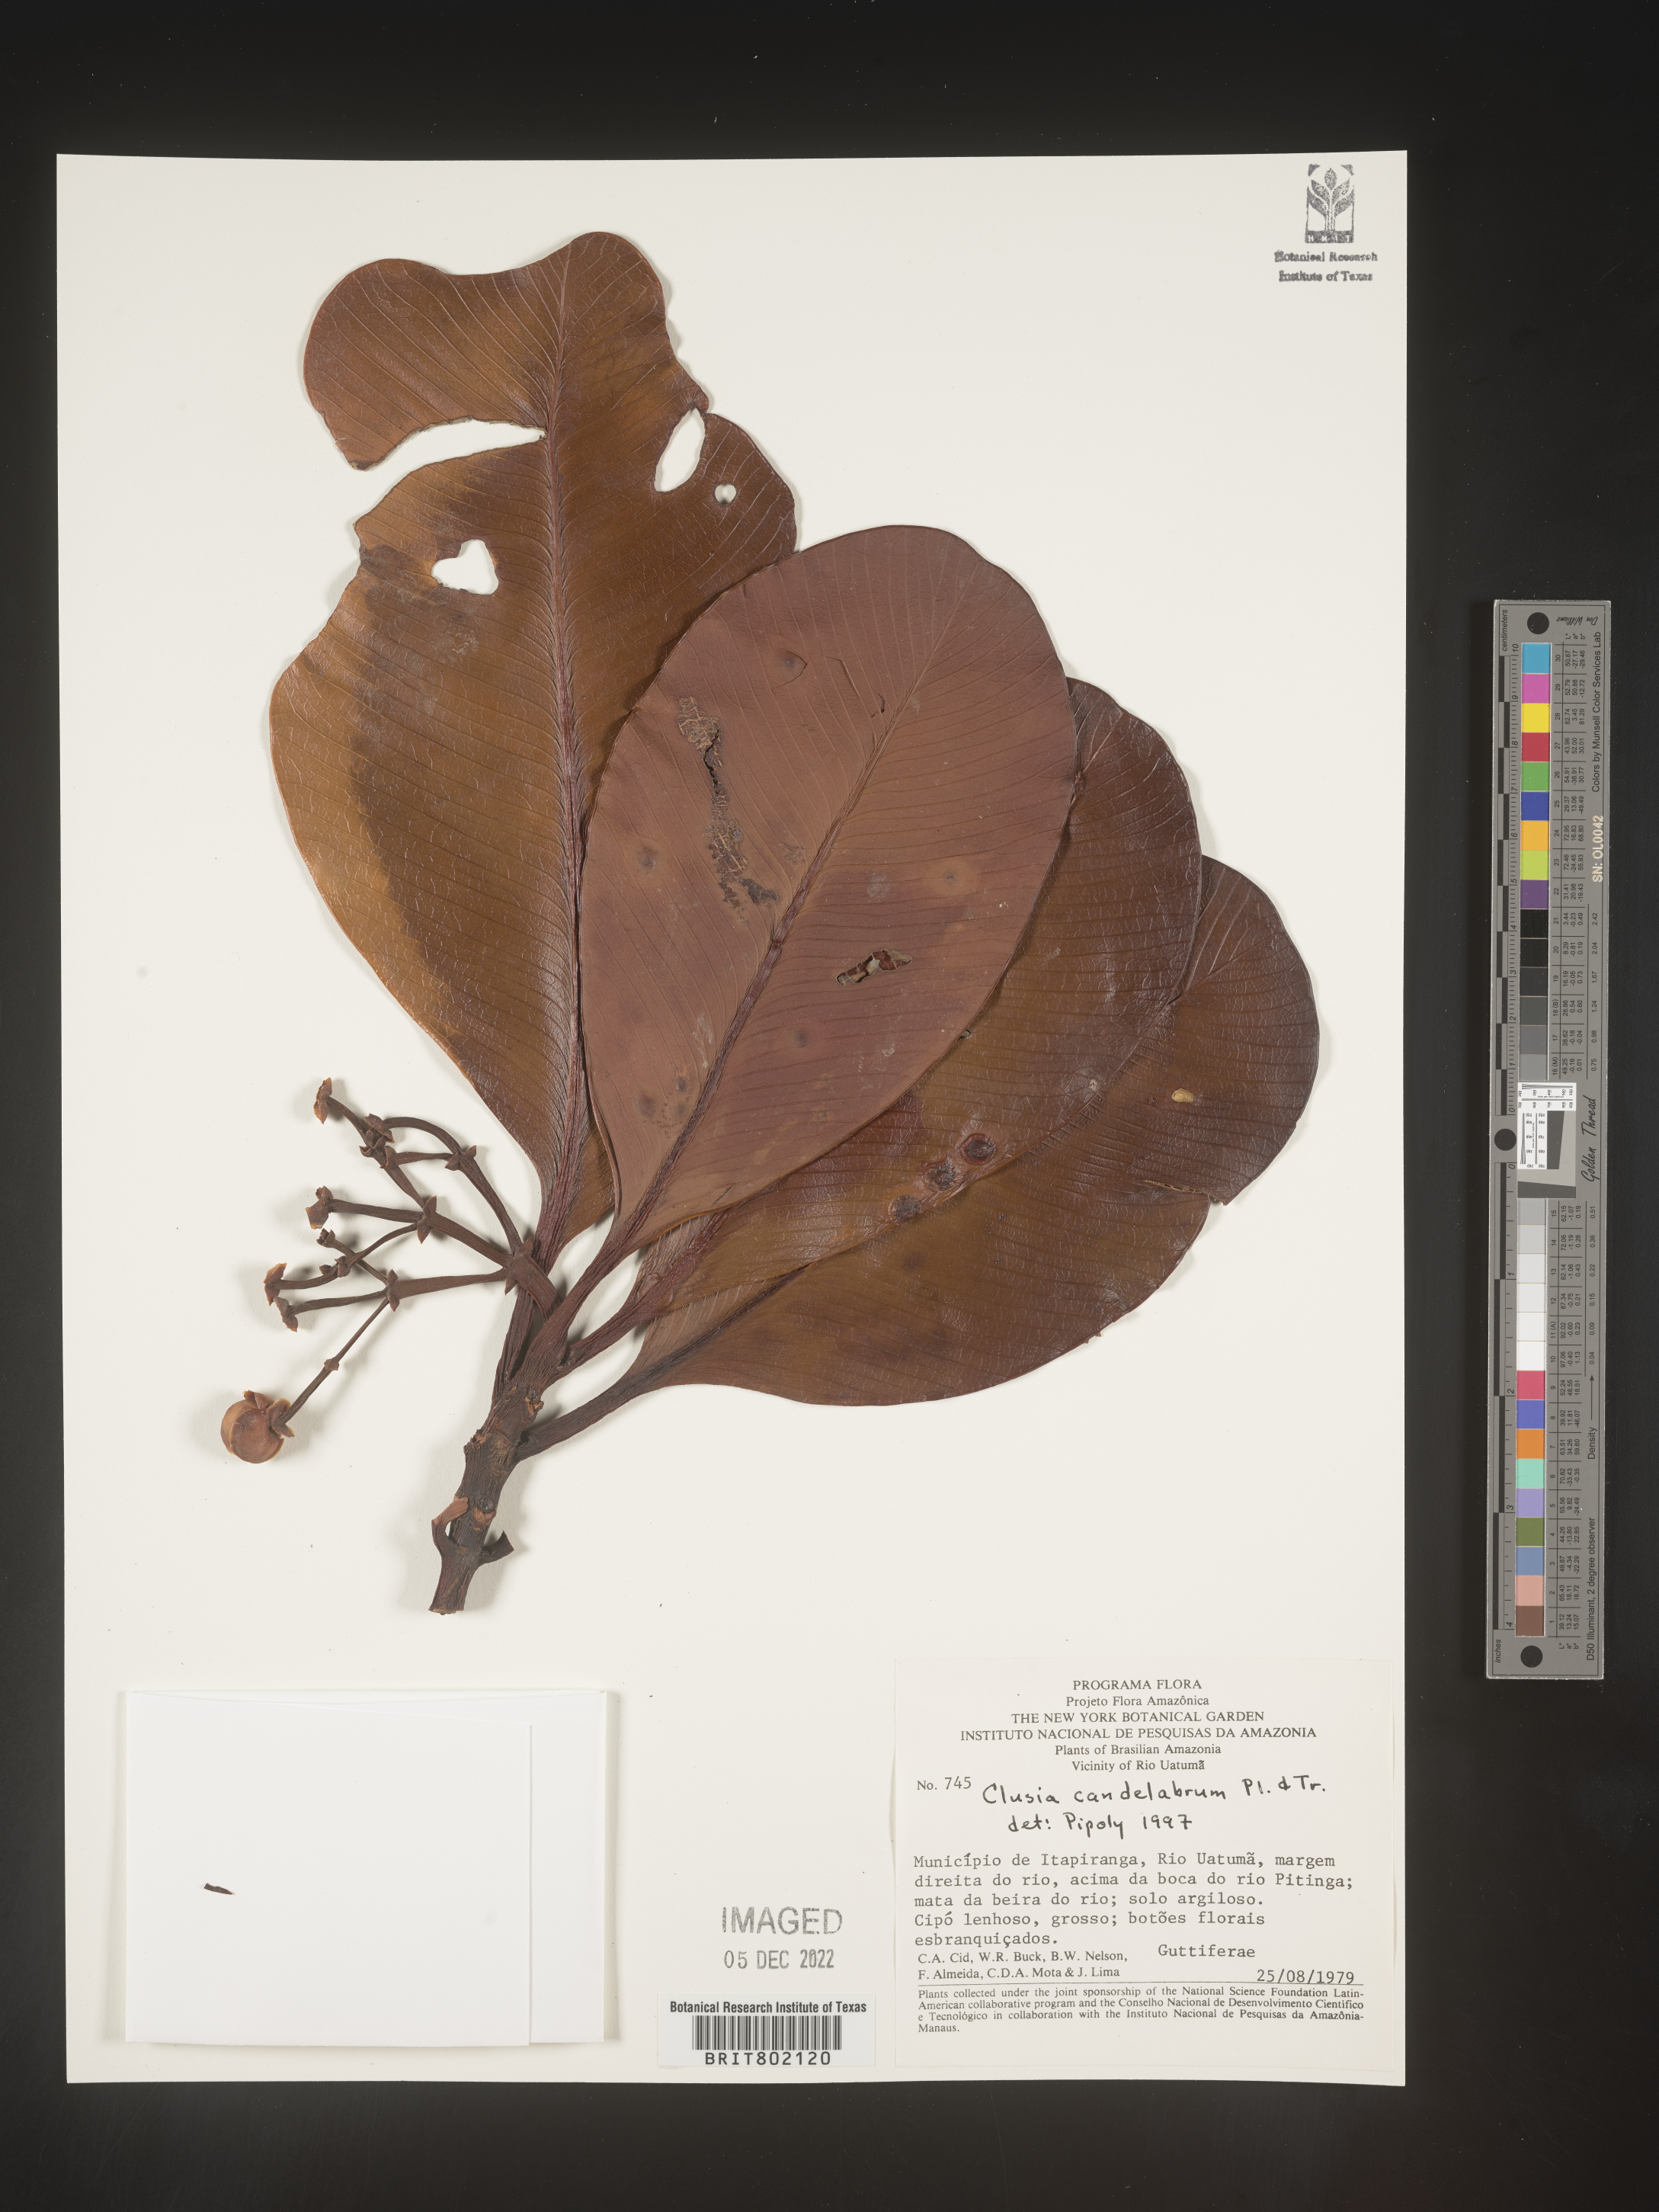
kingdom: Plantae
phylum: Tracheophyta
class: Magnoliopsida
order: Malpighiales
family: Clusiaceae
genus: Clusia
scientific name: Clusia candelabrum
